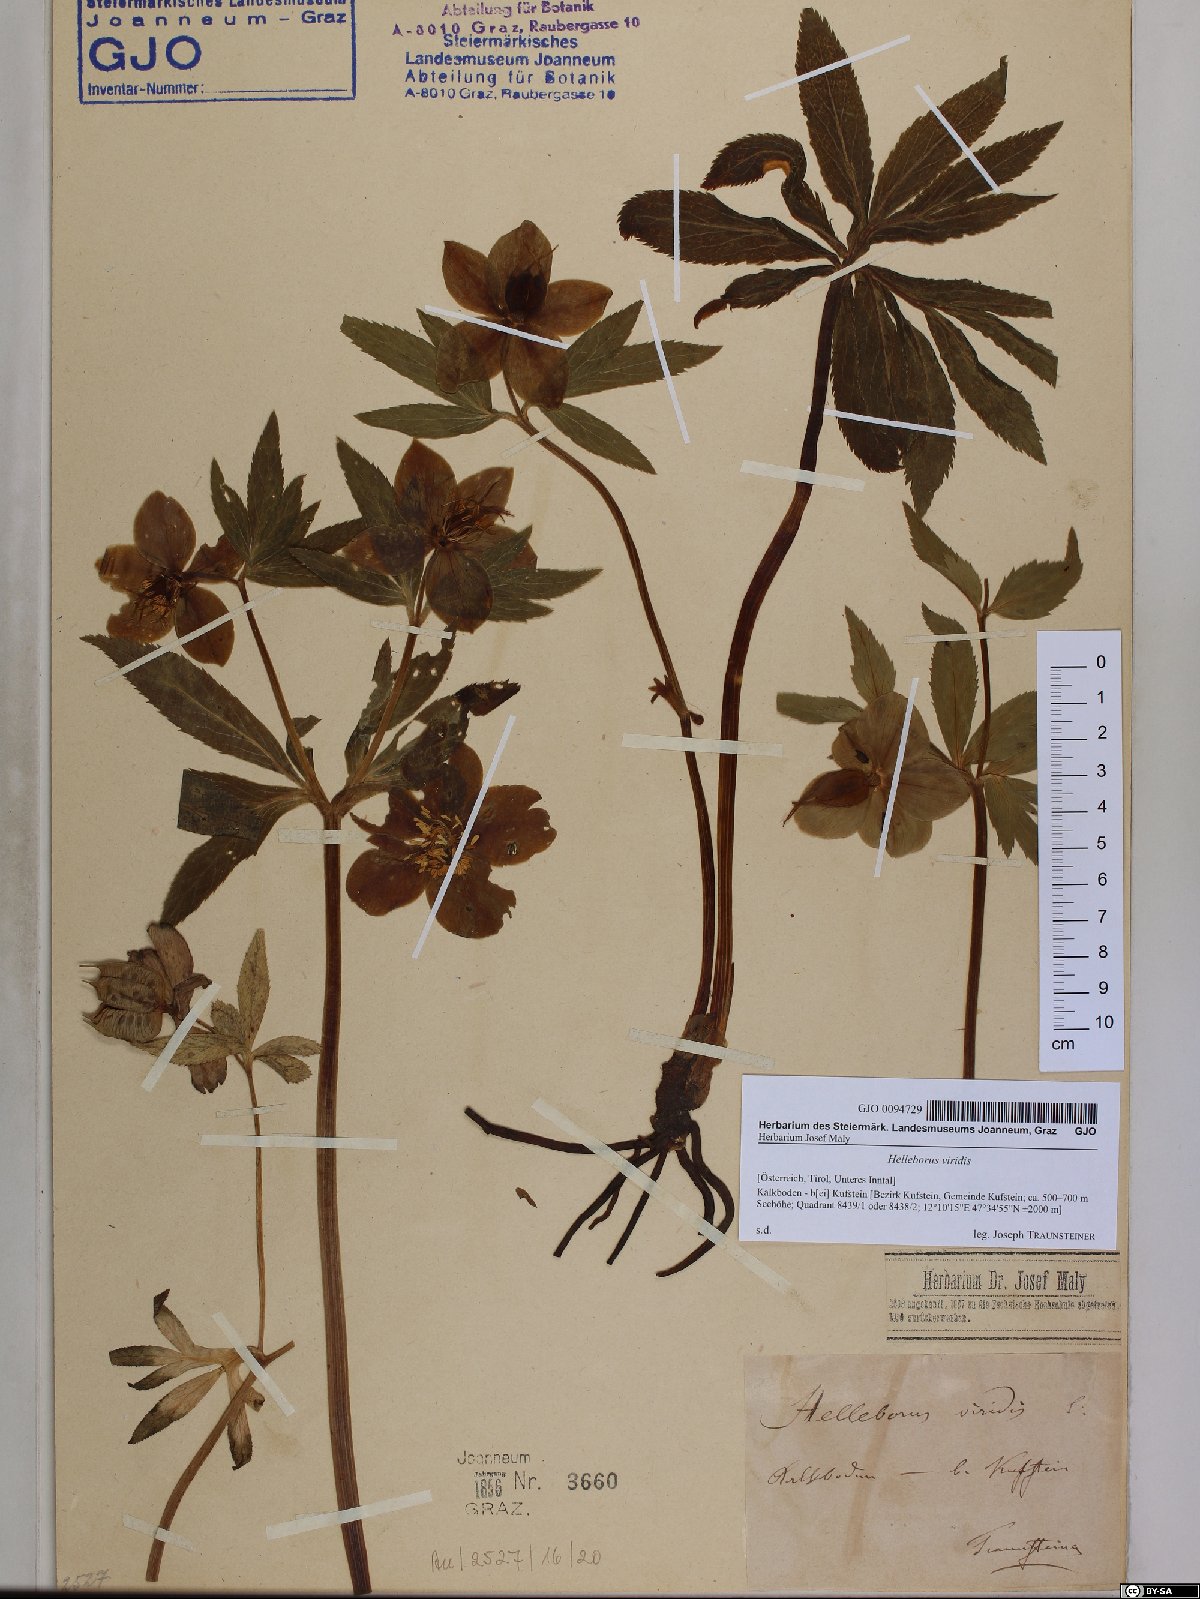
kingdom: Plantae
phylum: Tracheophyta
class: Magnoliopsida
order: Ranunculales
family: Ranunculaceae
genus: Helleborus
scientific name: Helleborus viridis
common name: Green hellebore
